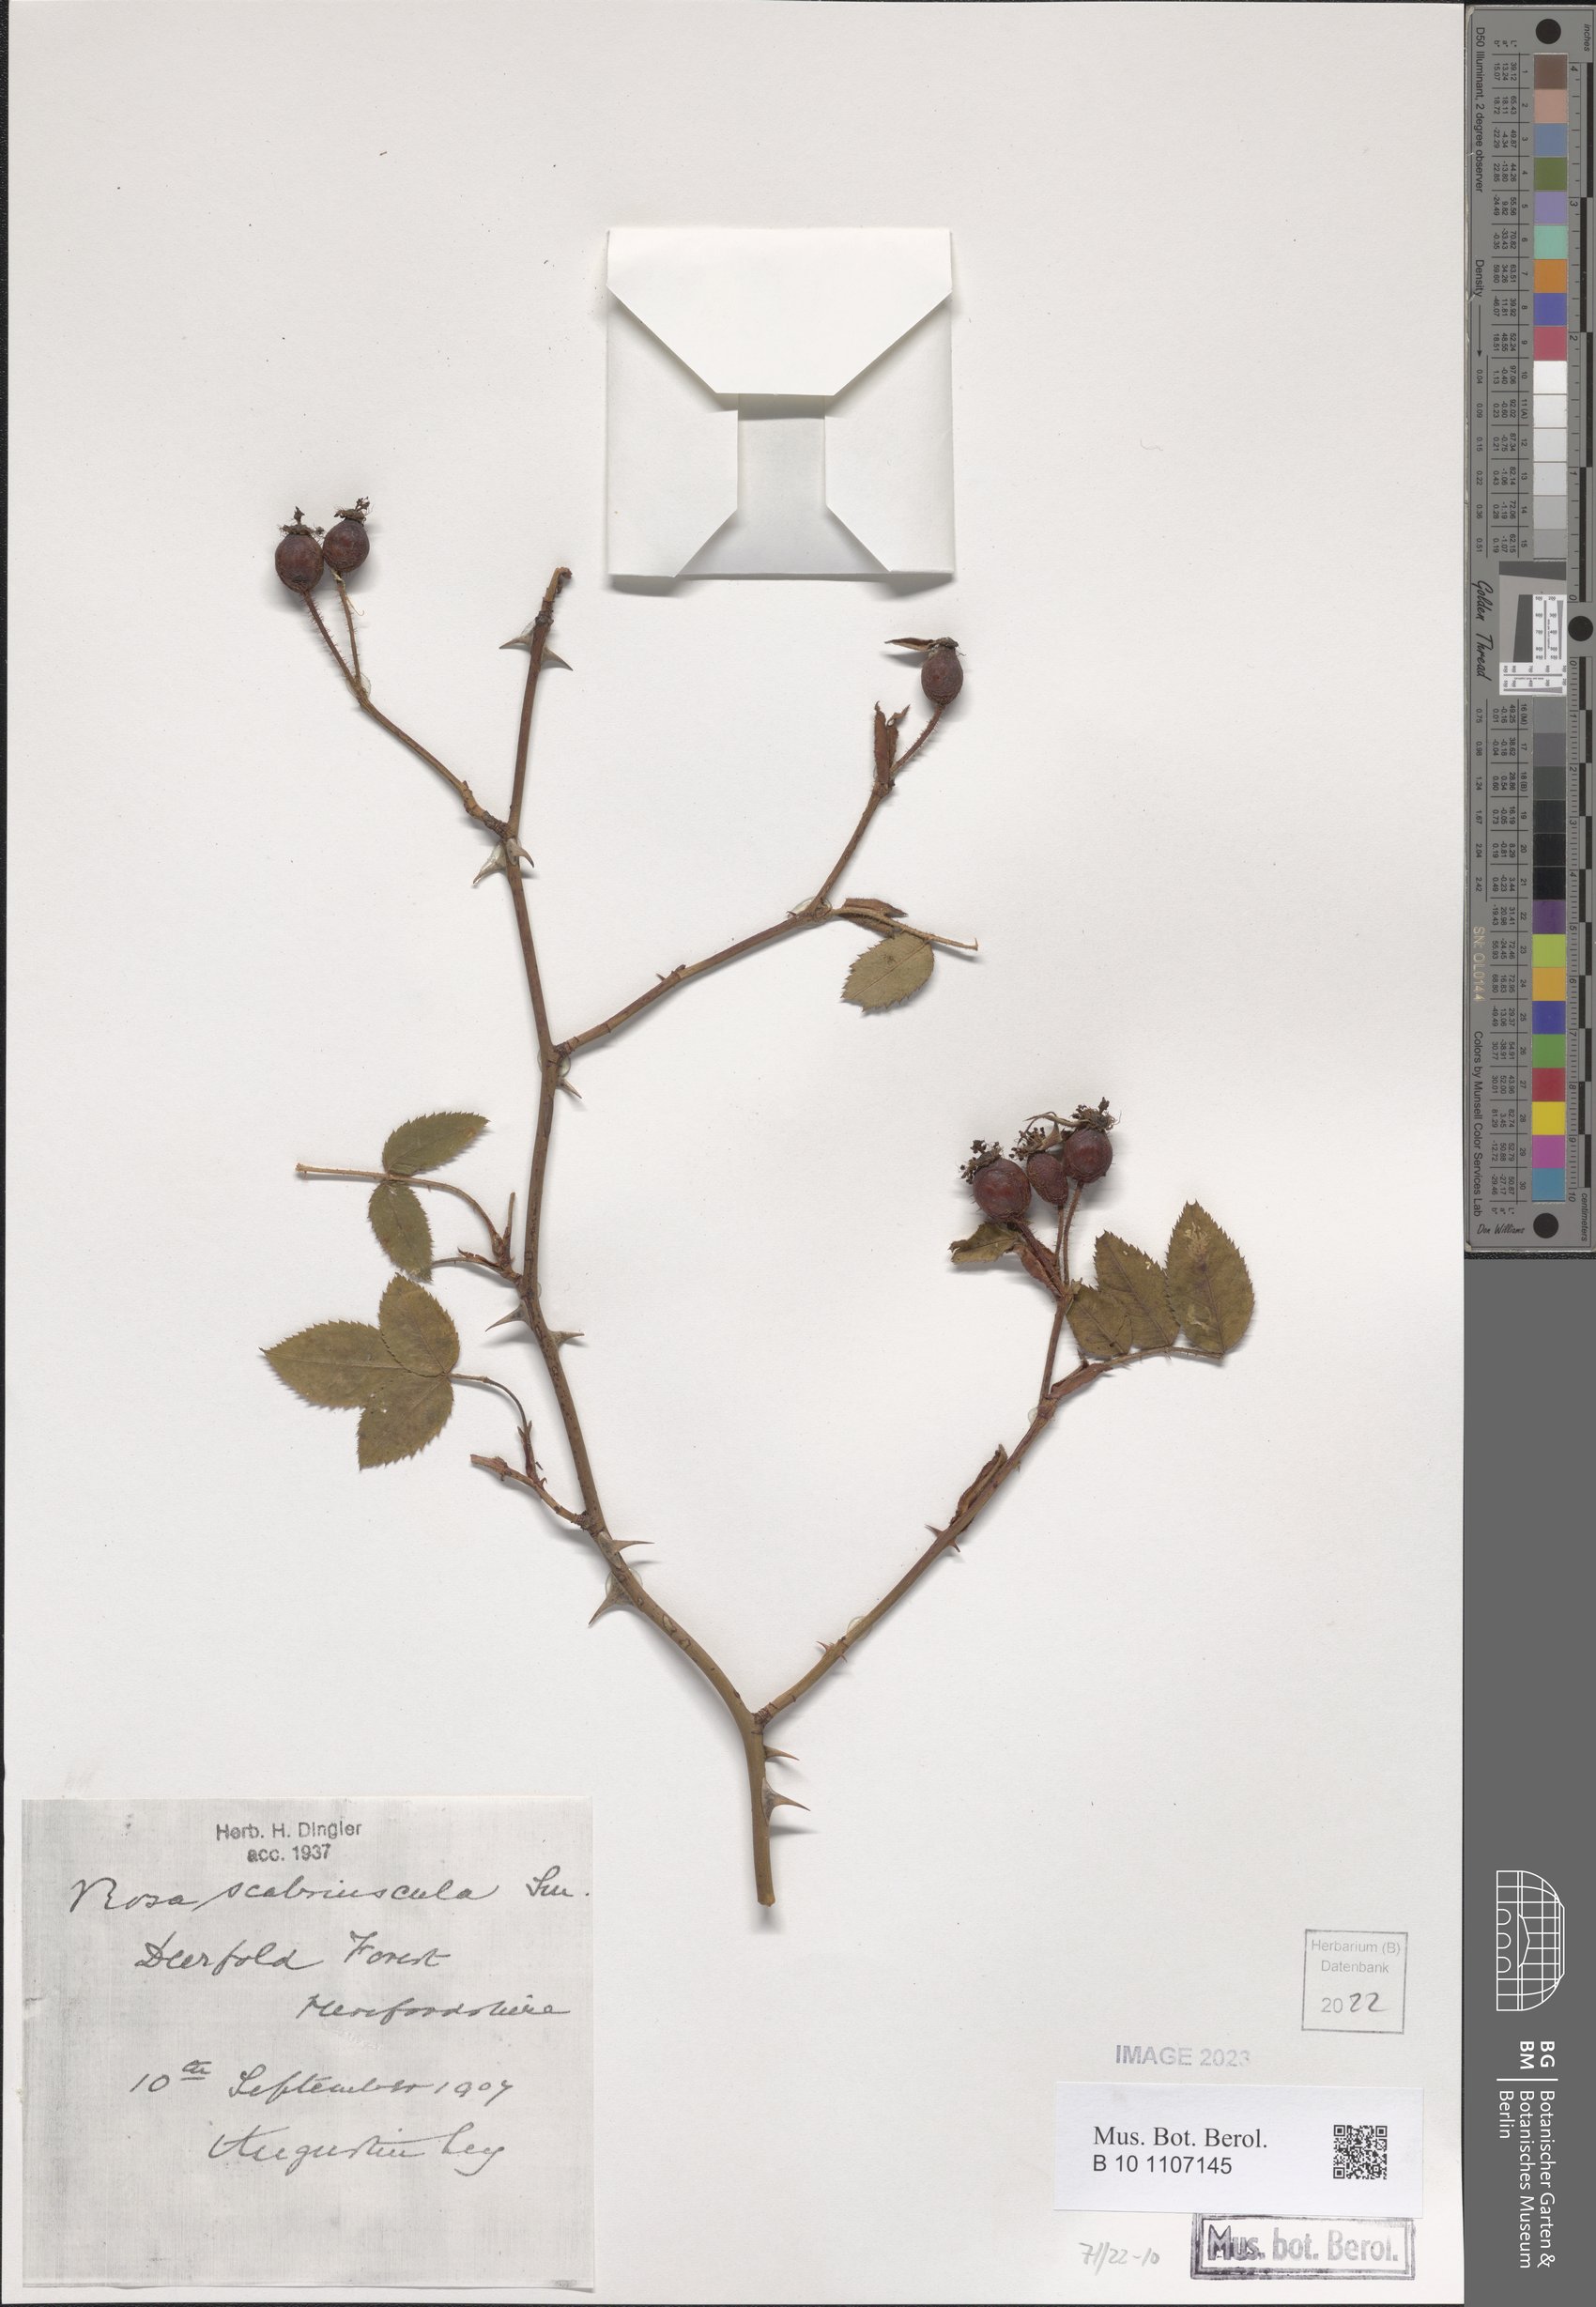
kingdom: Plantae
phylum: Tracheophyta
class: Magnoliopsida
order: Rosales
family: Rosaceae
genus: Rosa
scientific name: Rosa scabriuscula
